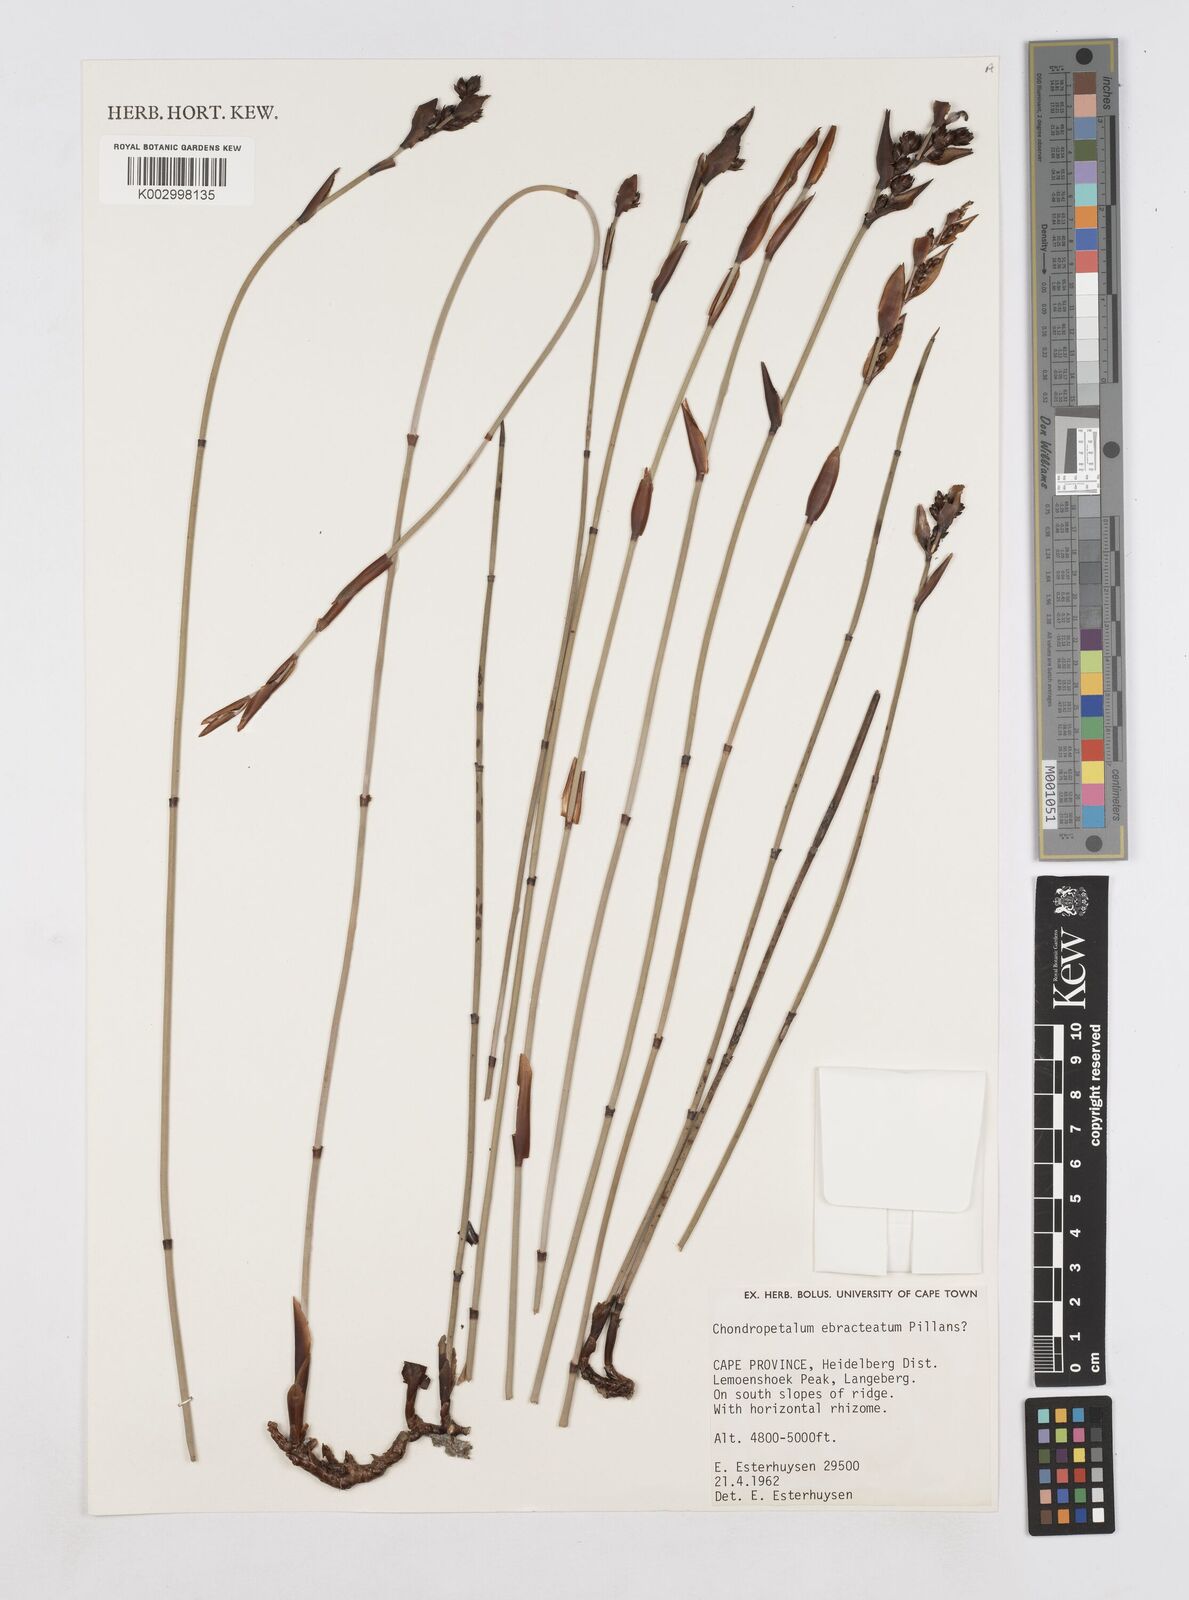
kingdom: Plantae
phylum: Tracheophyta
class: Liliopsida
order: Poales
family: Restionaceae
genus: Elegia
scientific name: Elegia ebracteata
